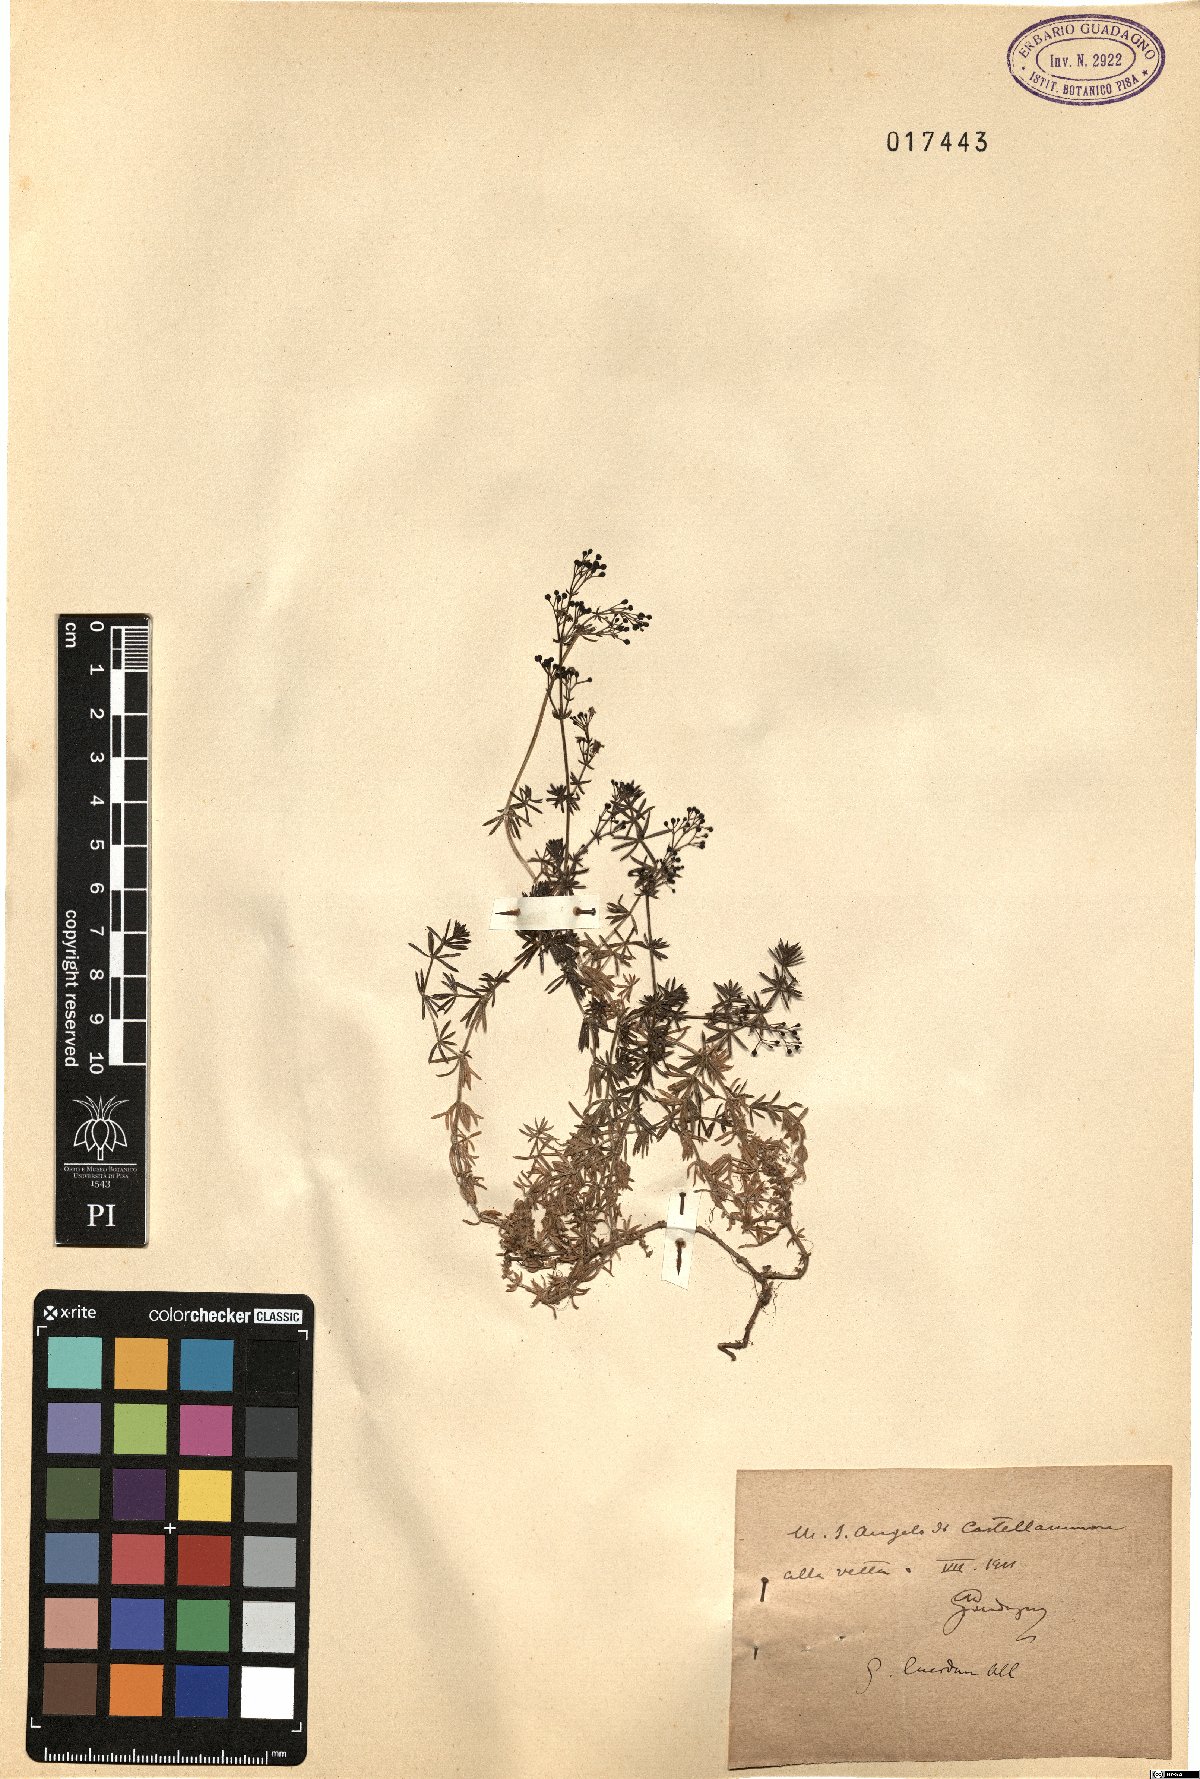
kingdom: Plantae
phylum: Tracheophyta
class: Magnoliopsida
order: Gentianales
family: Rubiaceae
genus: Galium
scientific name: Galium lucidum
